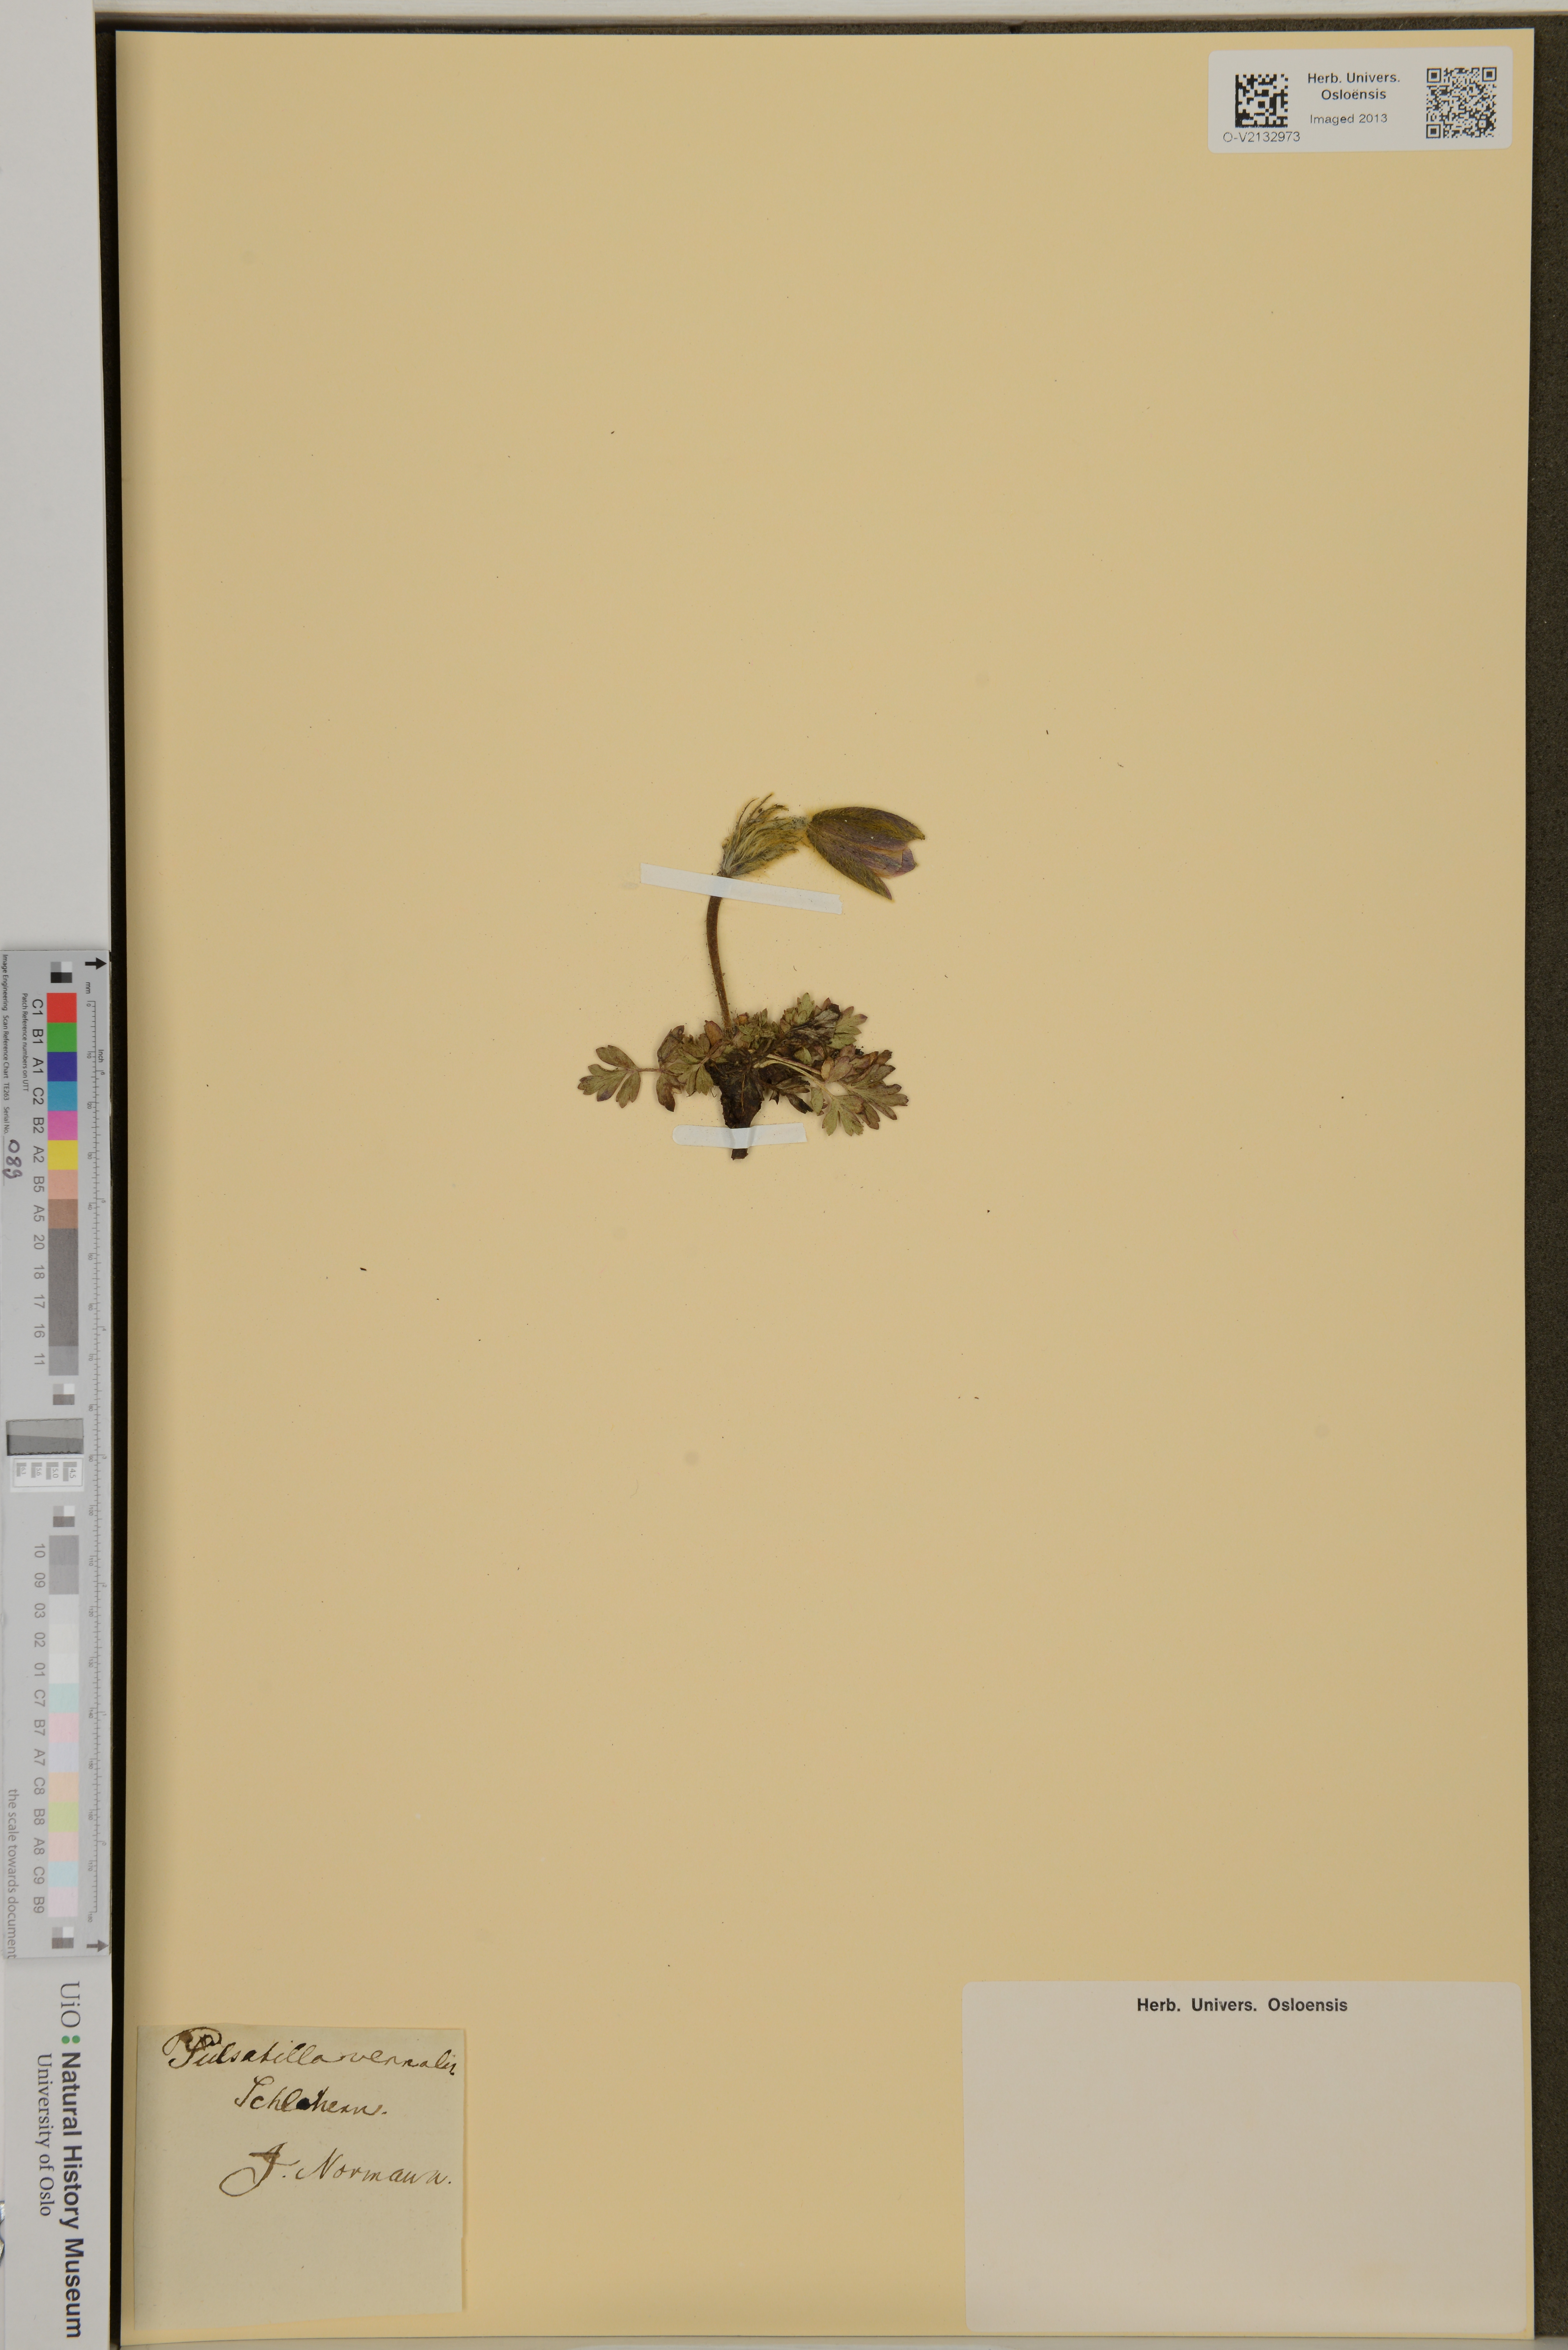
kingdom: Plantae
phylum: Tracheophyta
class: Magnoliopsida
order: Ranunculales
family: Ranunculaceae
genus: Pulsatilla
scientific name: Pulsatilla vernalis
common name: Spring pasque flower
